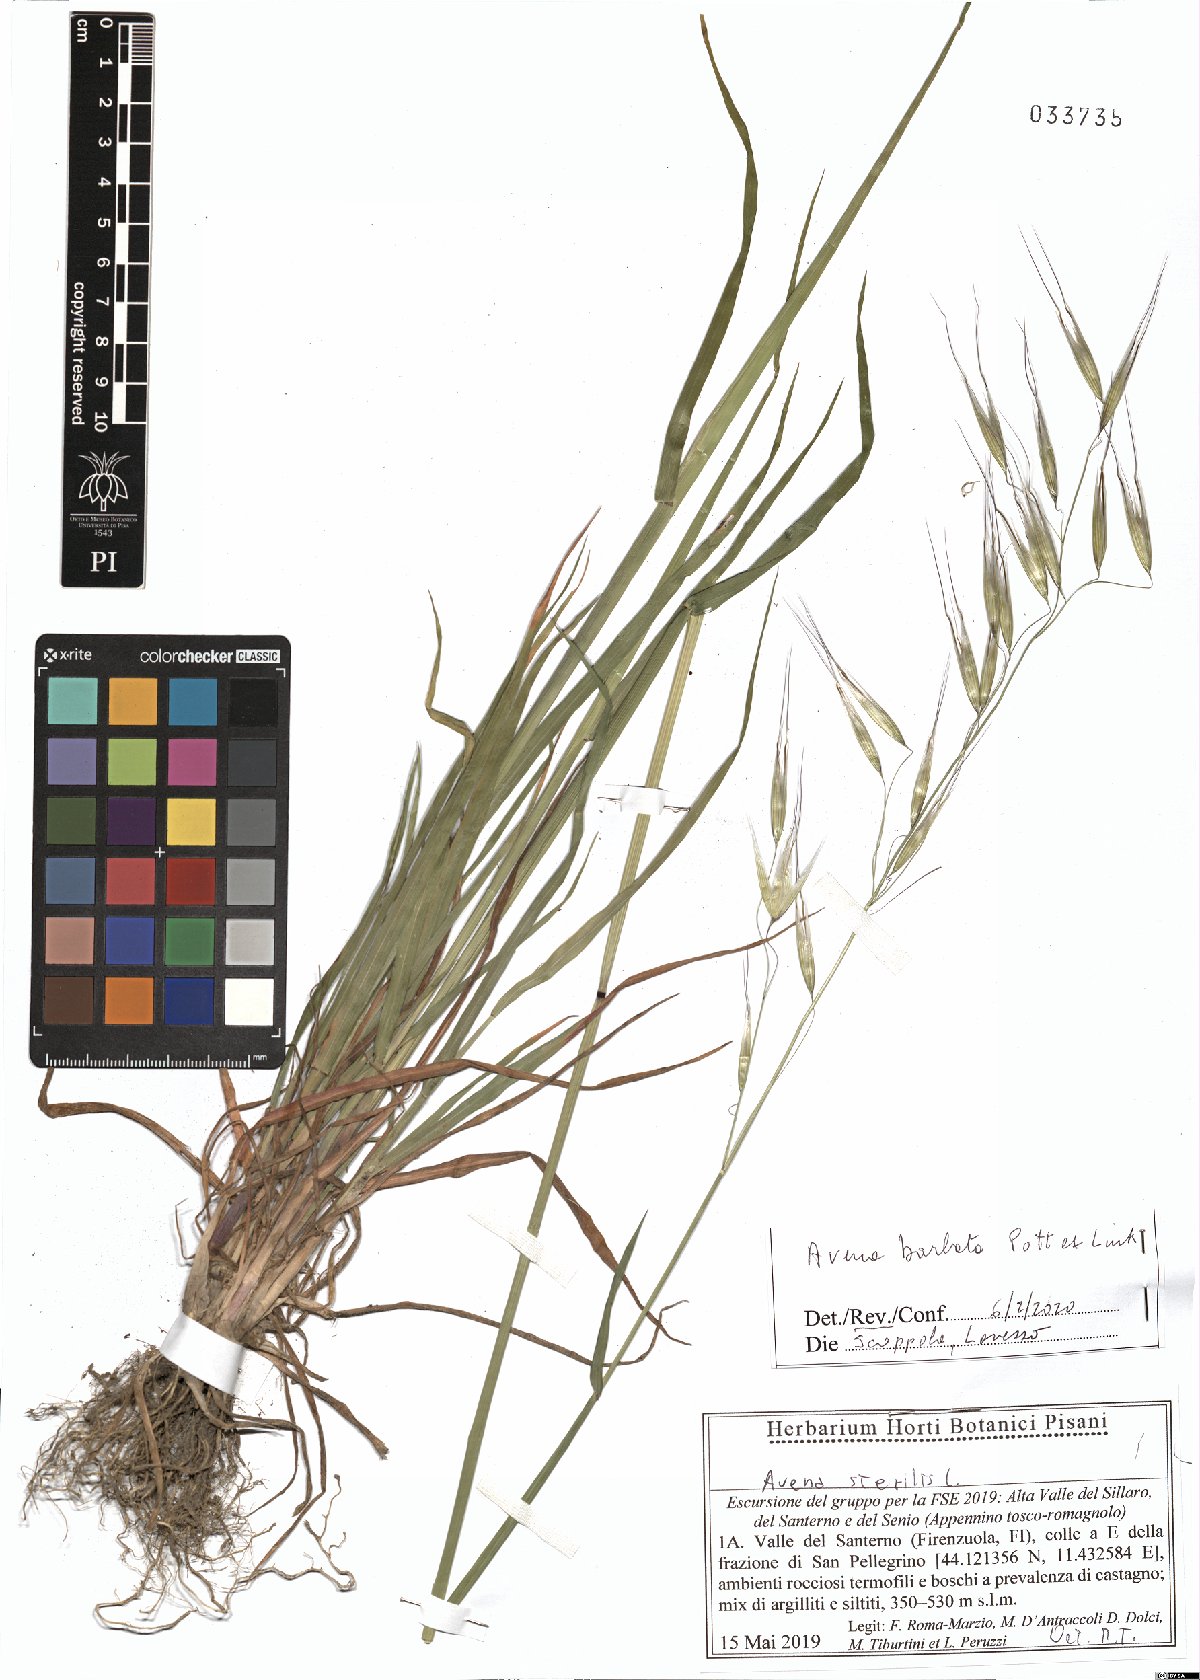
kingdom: Plantae
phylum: Tracheophyta
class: Liliopsida
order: Poales
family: Poaceae
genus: Avena
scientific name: Avena barbata
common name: Slender oat
